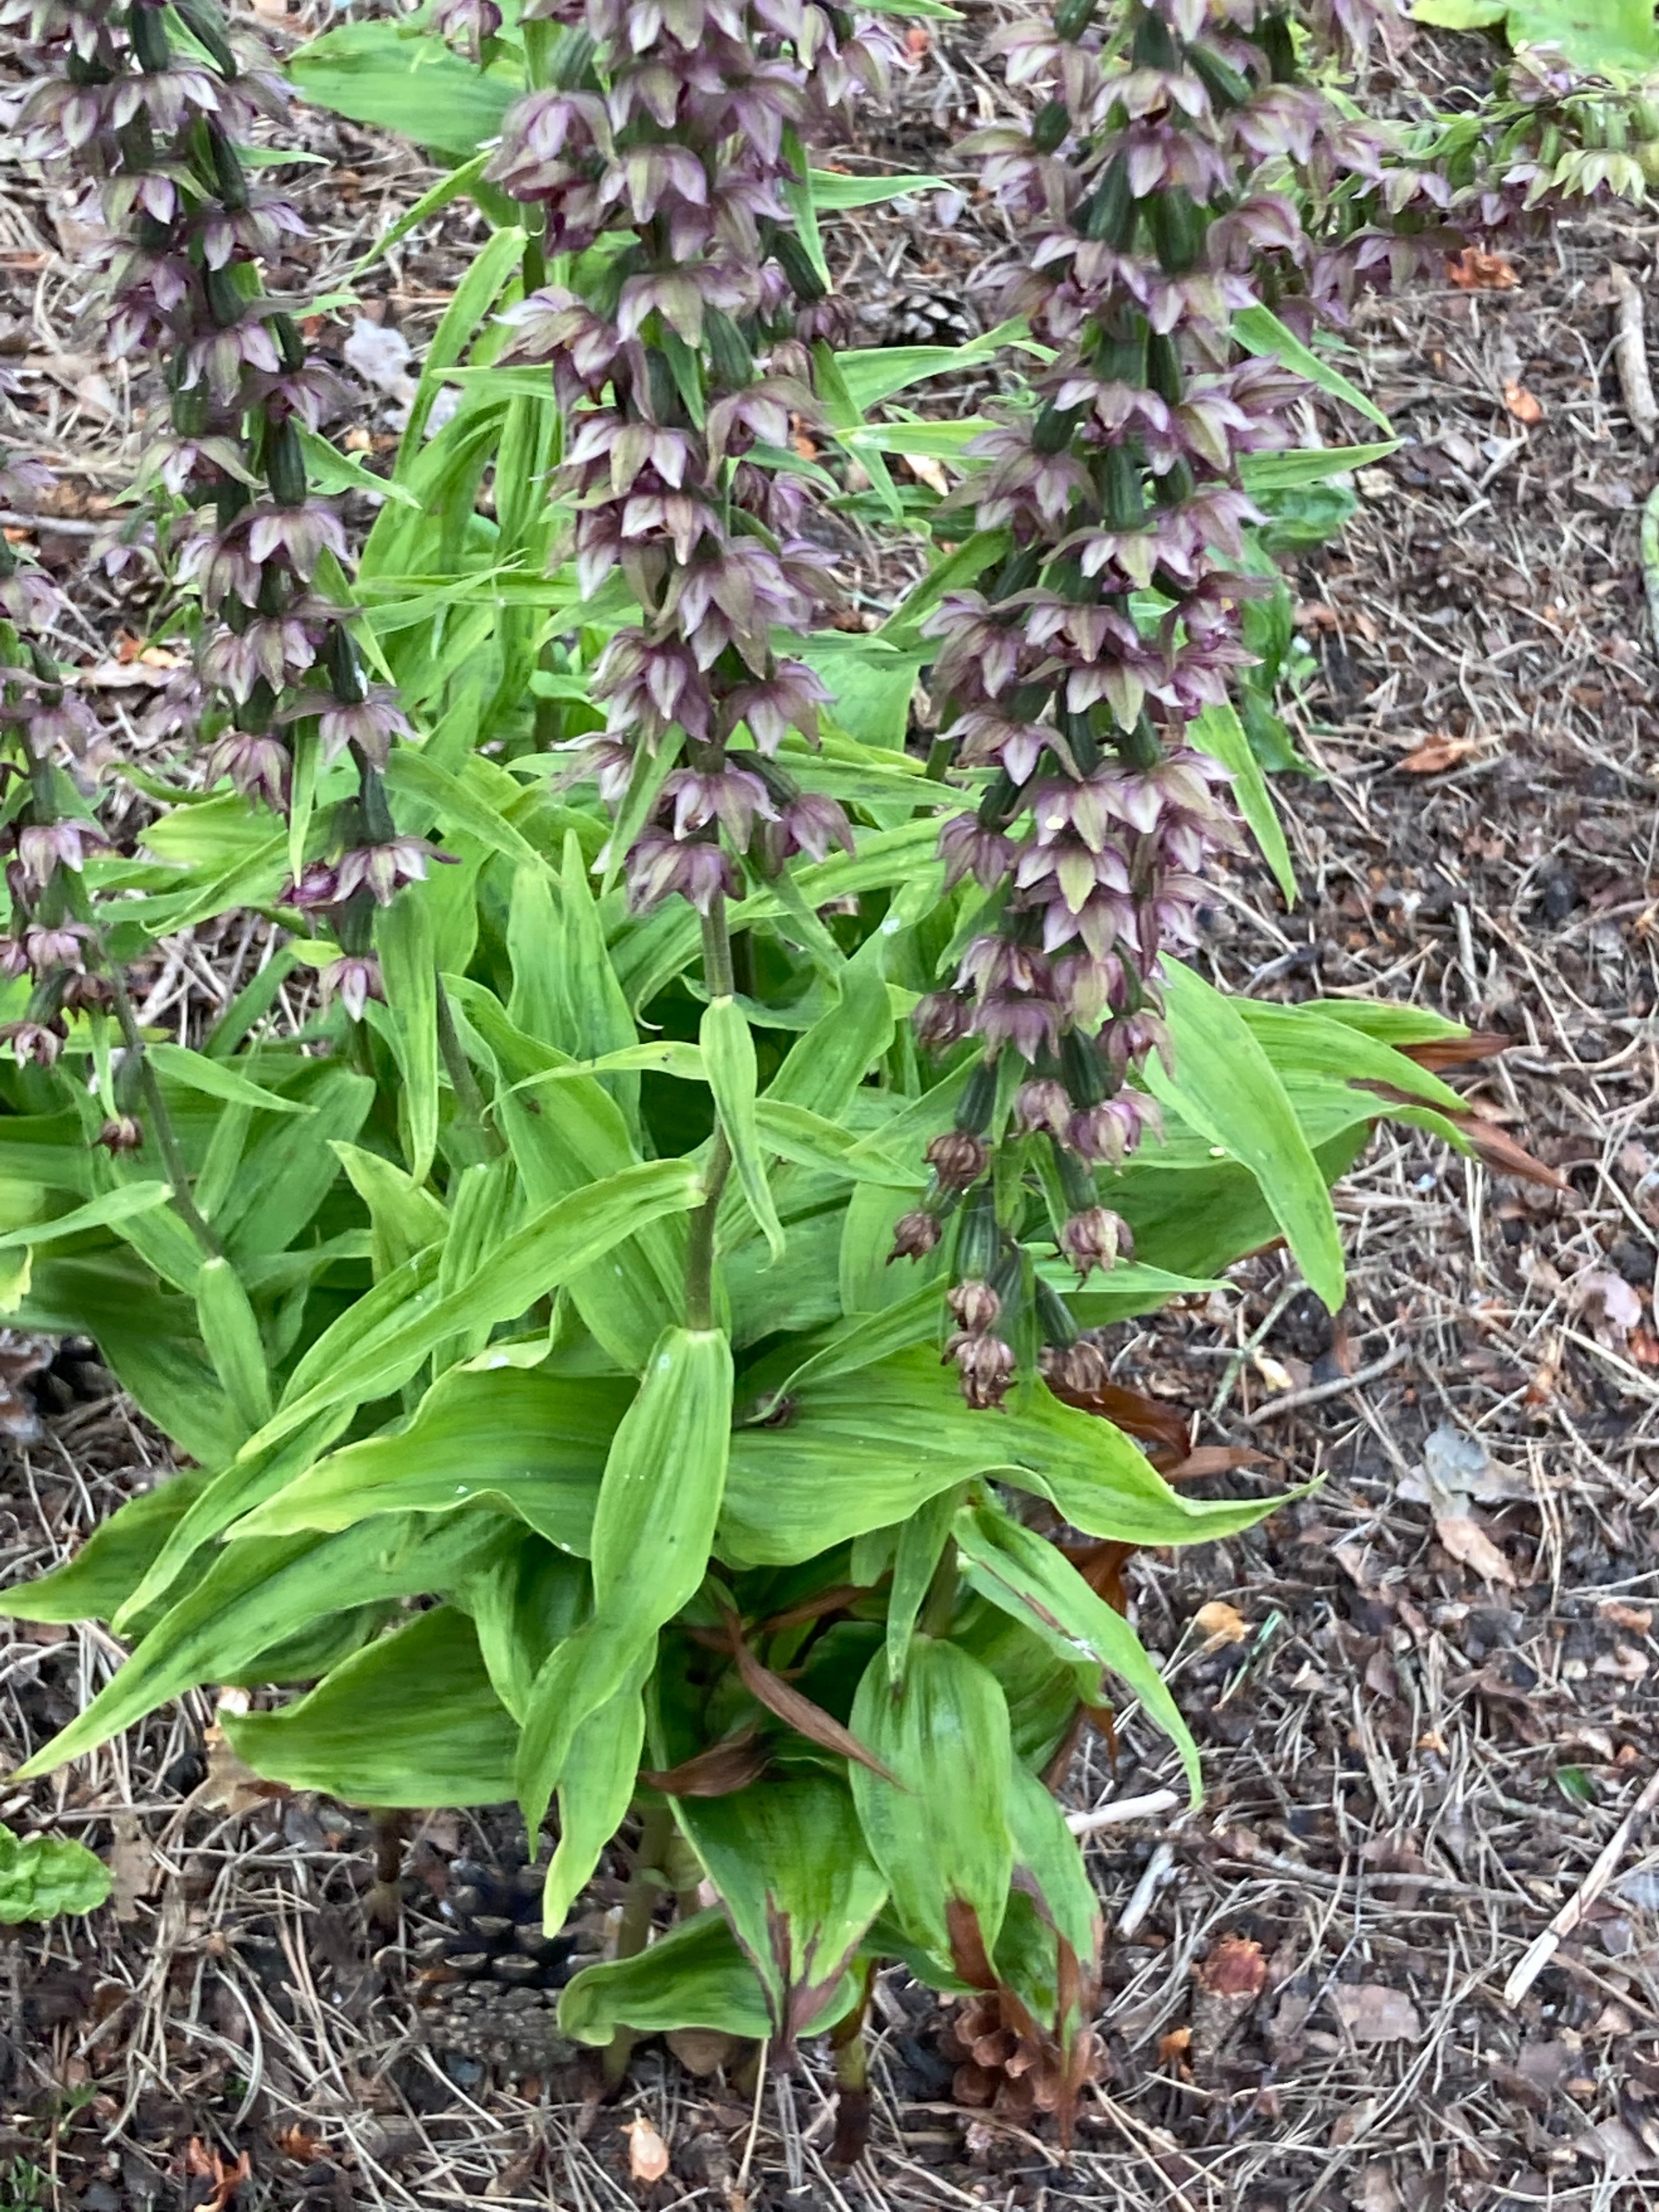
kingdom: Plantae
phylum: Tracheophyta
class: Liliopsida
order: Asparagales
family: Orchidaceae
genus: Epipactis
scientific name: Epipactis helleborine
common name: Skov-hullæbe
